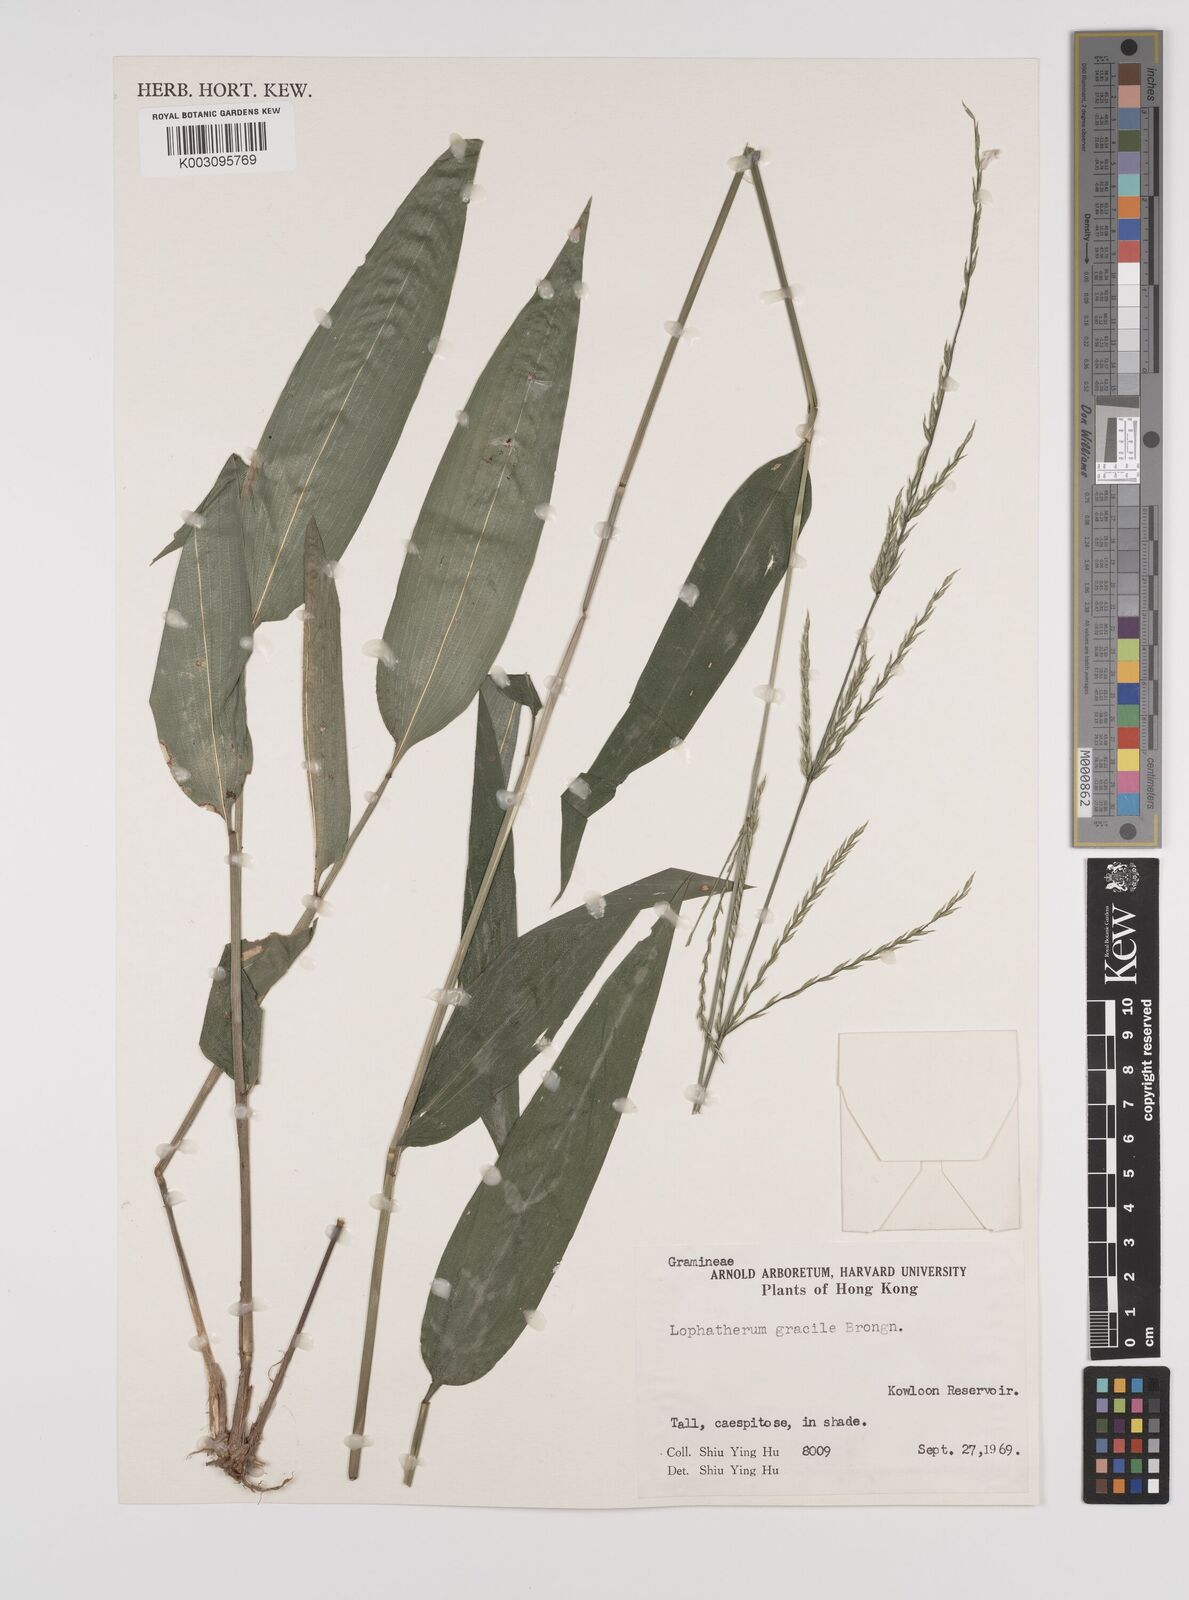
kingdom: Plantae
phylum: Tracheophyta
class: Liliopsida
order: Poales
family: Poaceae
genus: Lophatherum
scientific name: Lophatherum gracile
